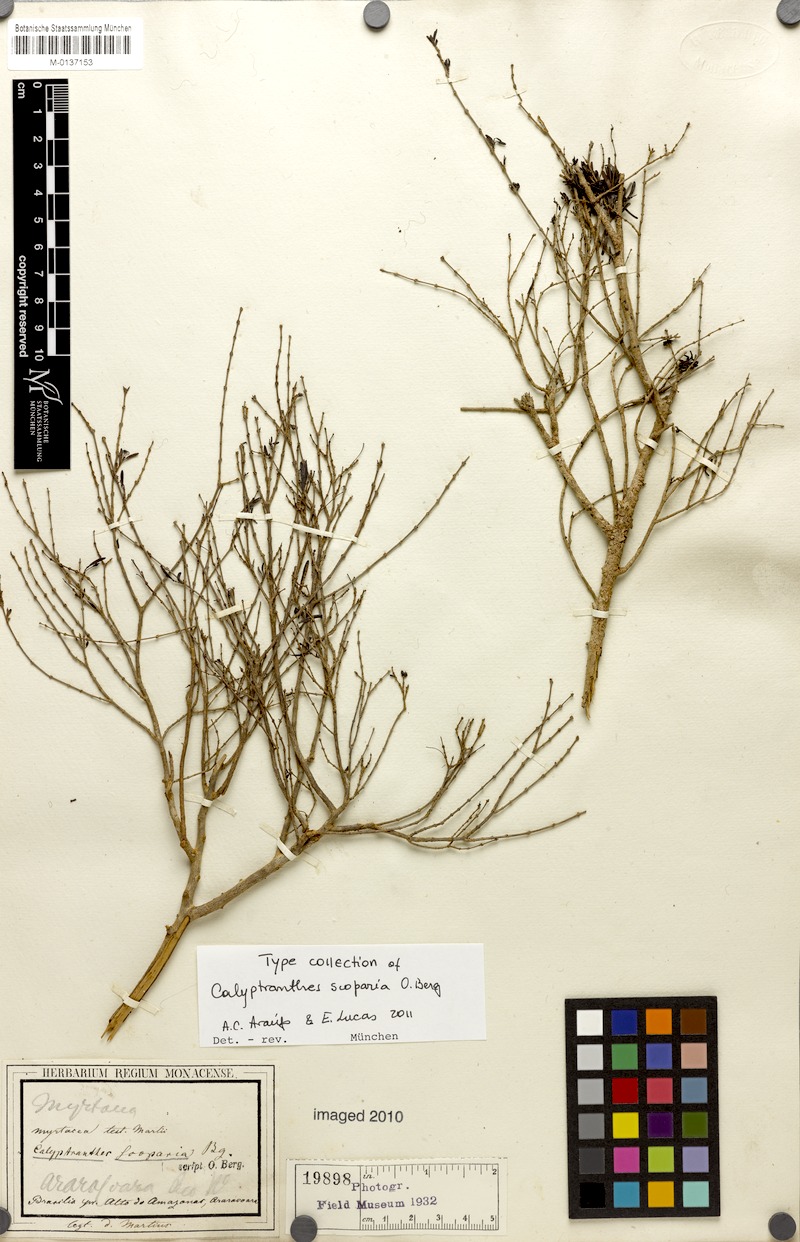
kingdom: Plantae
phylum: Tracheophyta
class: Magnoliopsida
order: Myrtales
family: Myrtaceae
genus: Myrcia
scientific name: Myrcia scoparia
